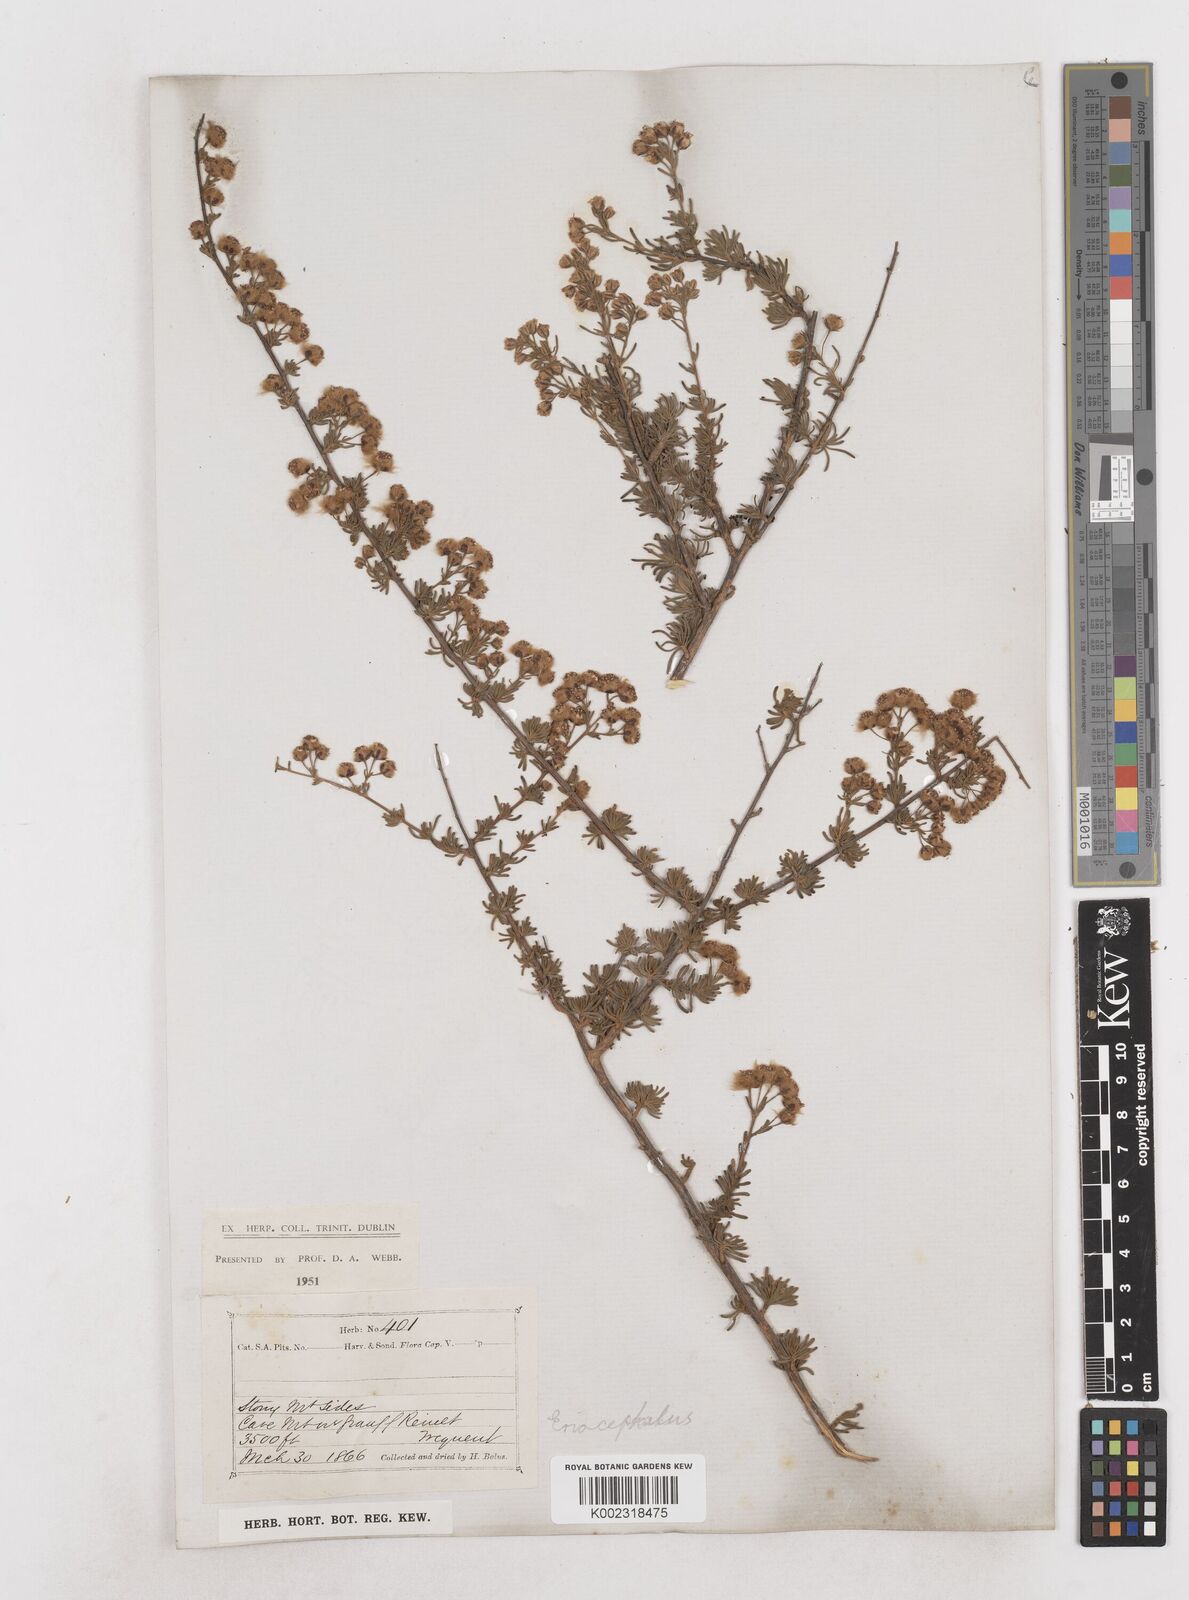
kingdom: Plantae
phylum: Tracheophyta
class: Magnoliopsida
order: Asterales
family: Asteraceae
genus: Eriocephalus
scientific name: Eriocephalus
